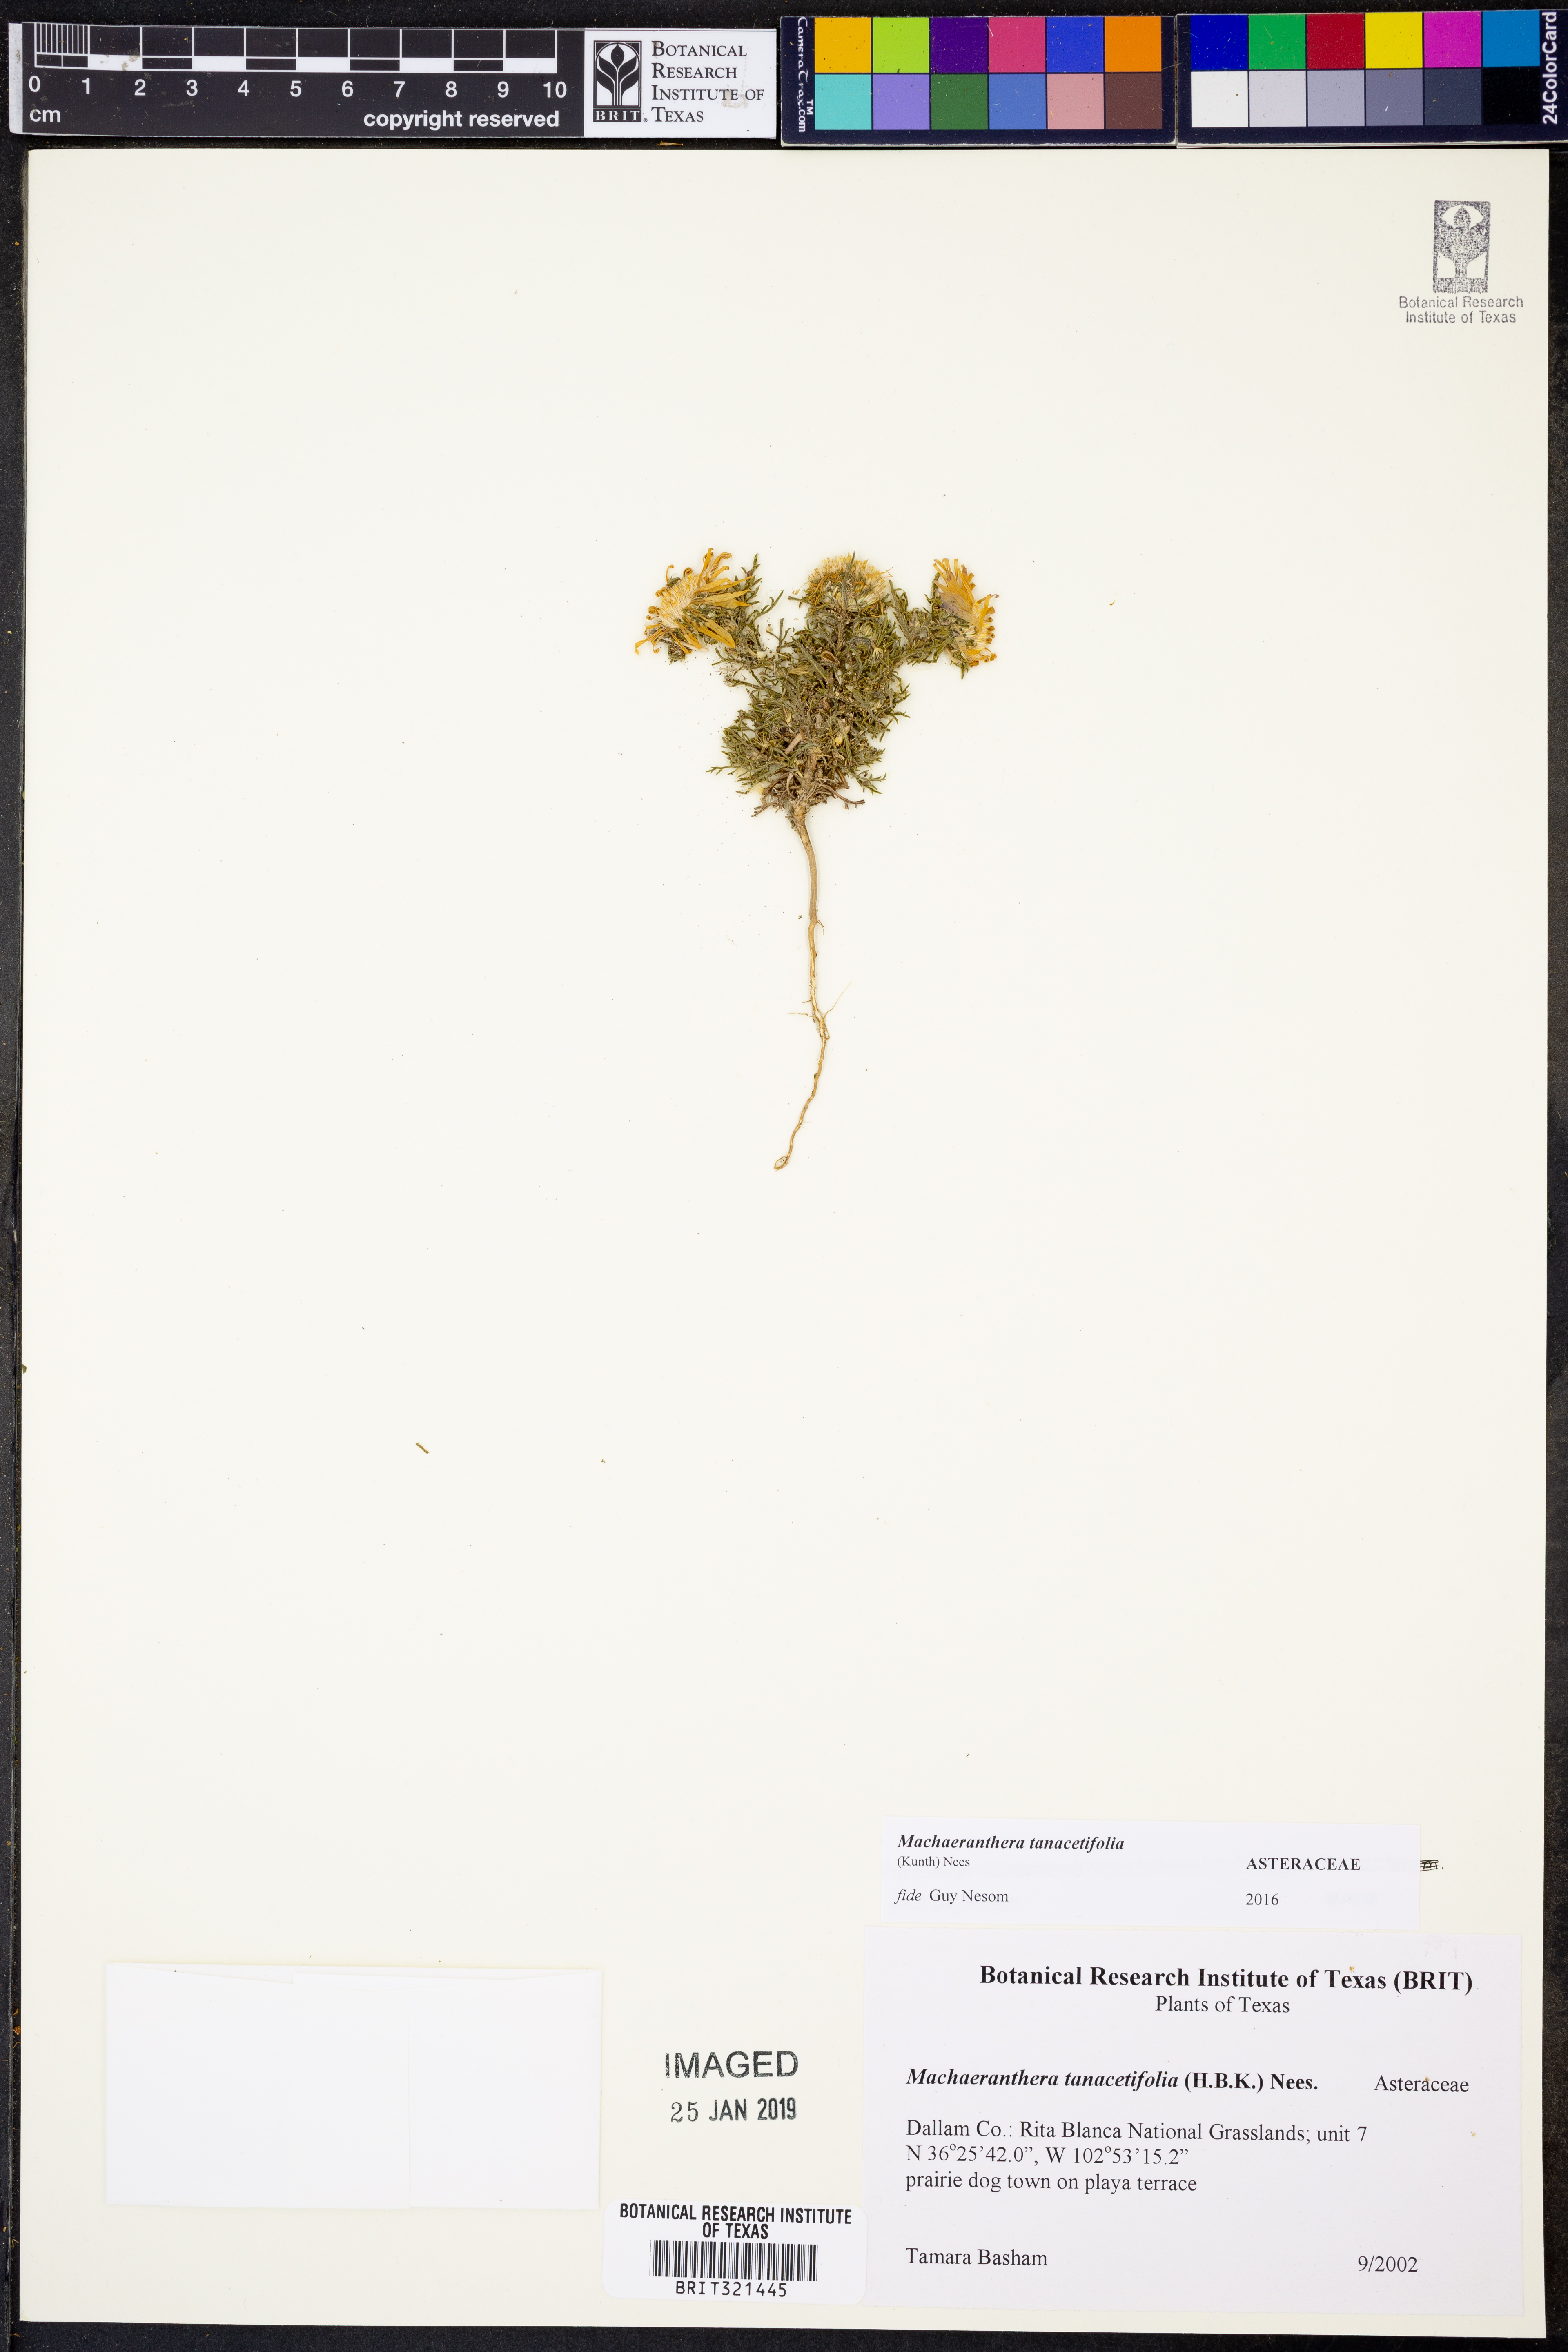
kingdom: Plantae
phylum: Tracheophyta
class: Magnoliopsida
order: Asterales
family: Asteraceae
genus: Machaeranthera
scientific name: Machaeranthera tanacetifolia
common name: Tansy-aster
